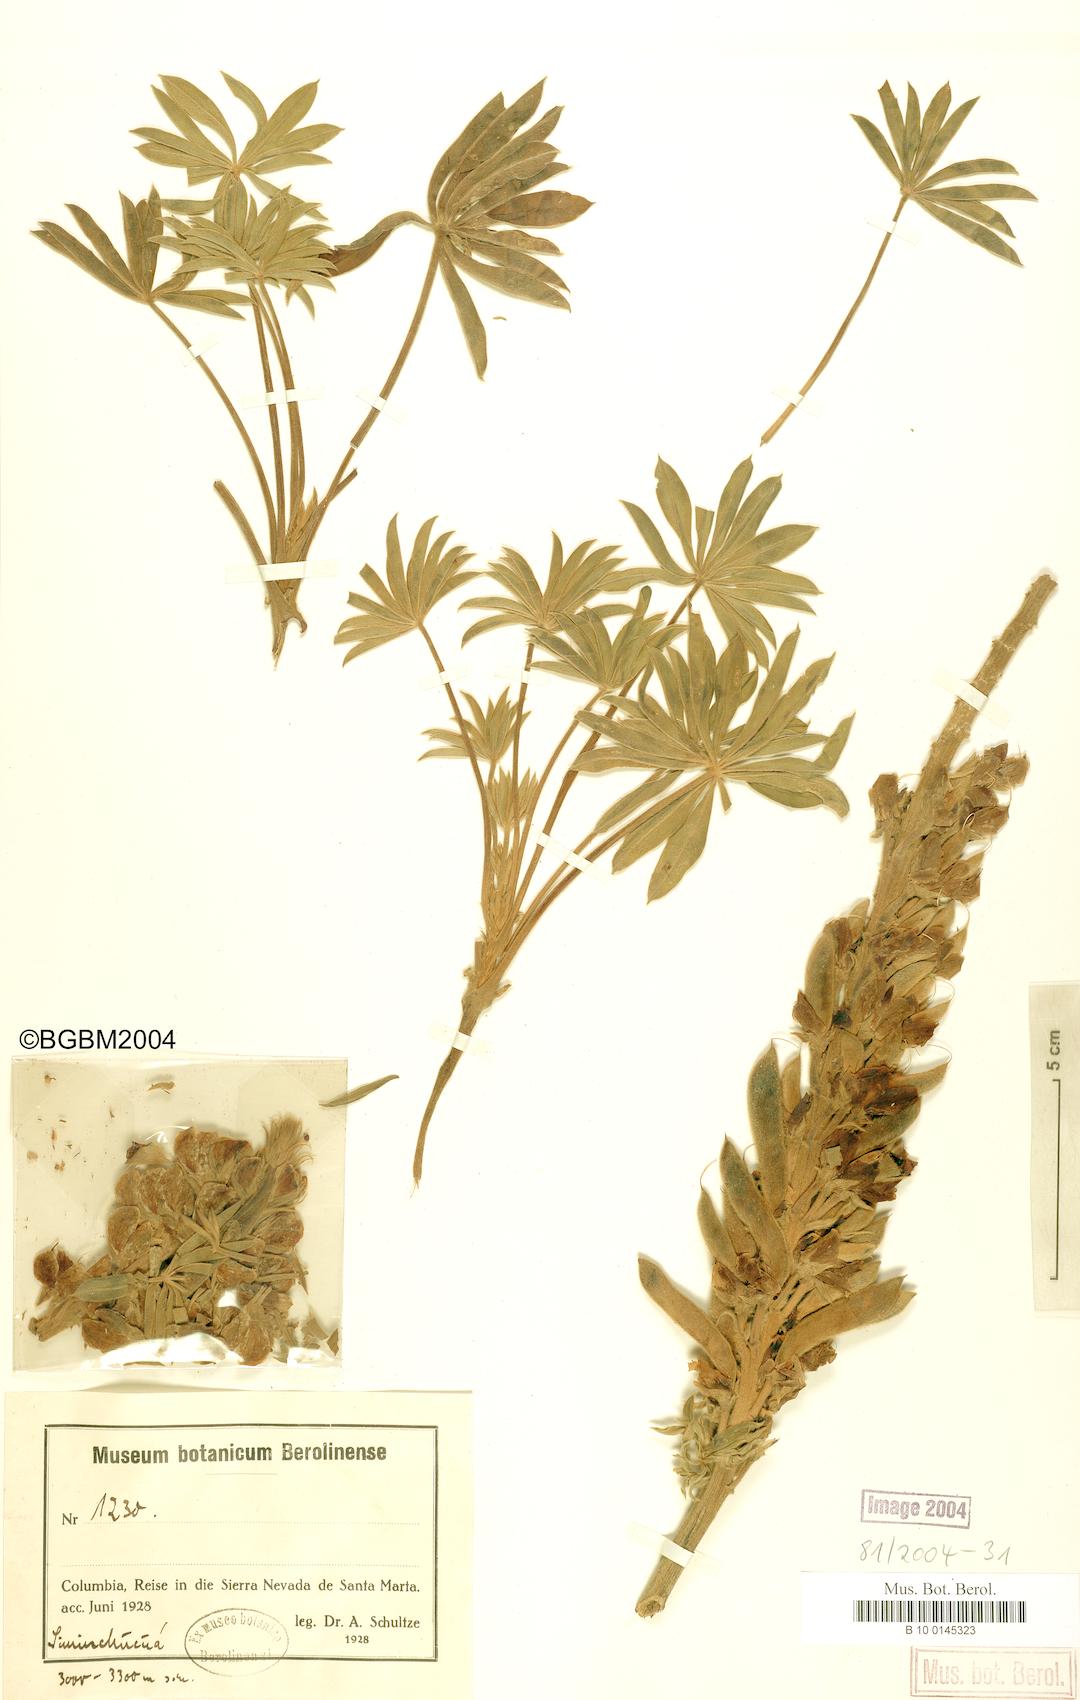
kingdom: Plantae
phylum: Tracheophyta
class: Magnoliopsida
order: Fabales
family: Fabaceae
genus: Lupinus
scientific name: Lupinus
